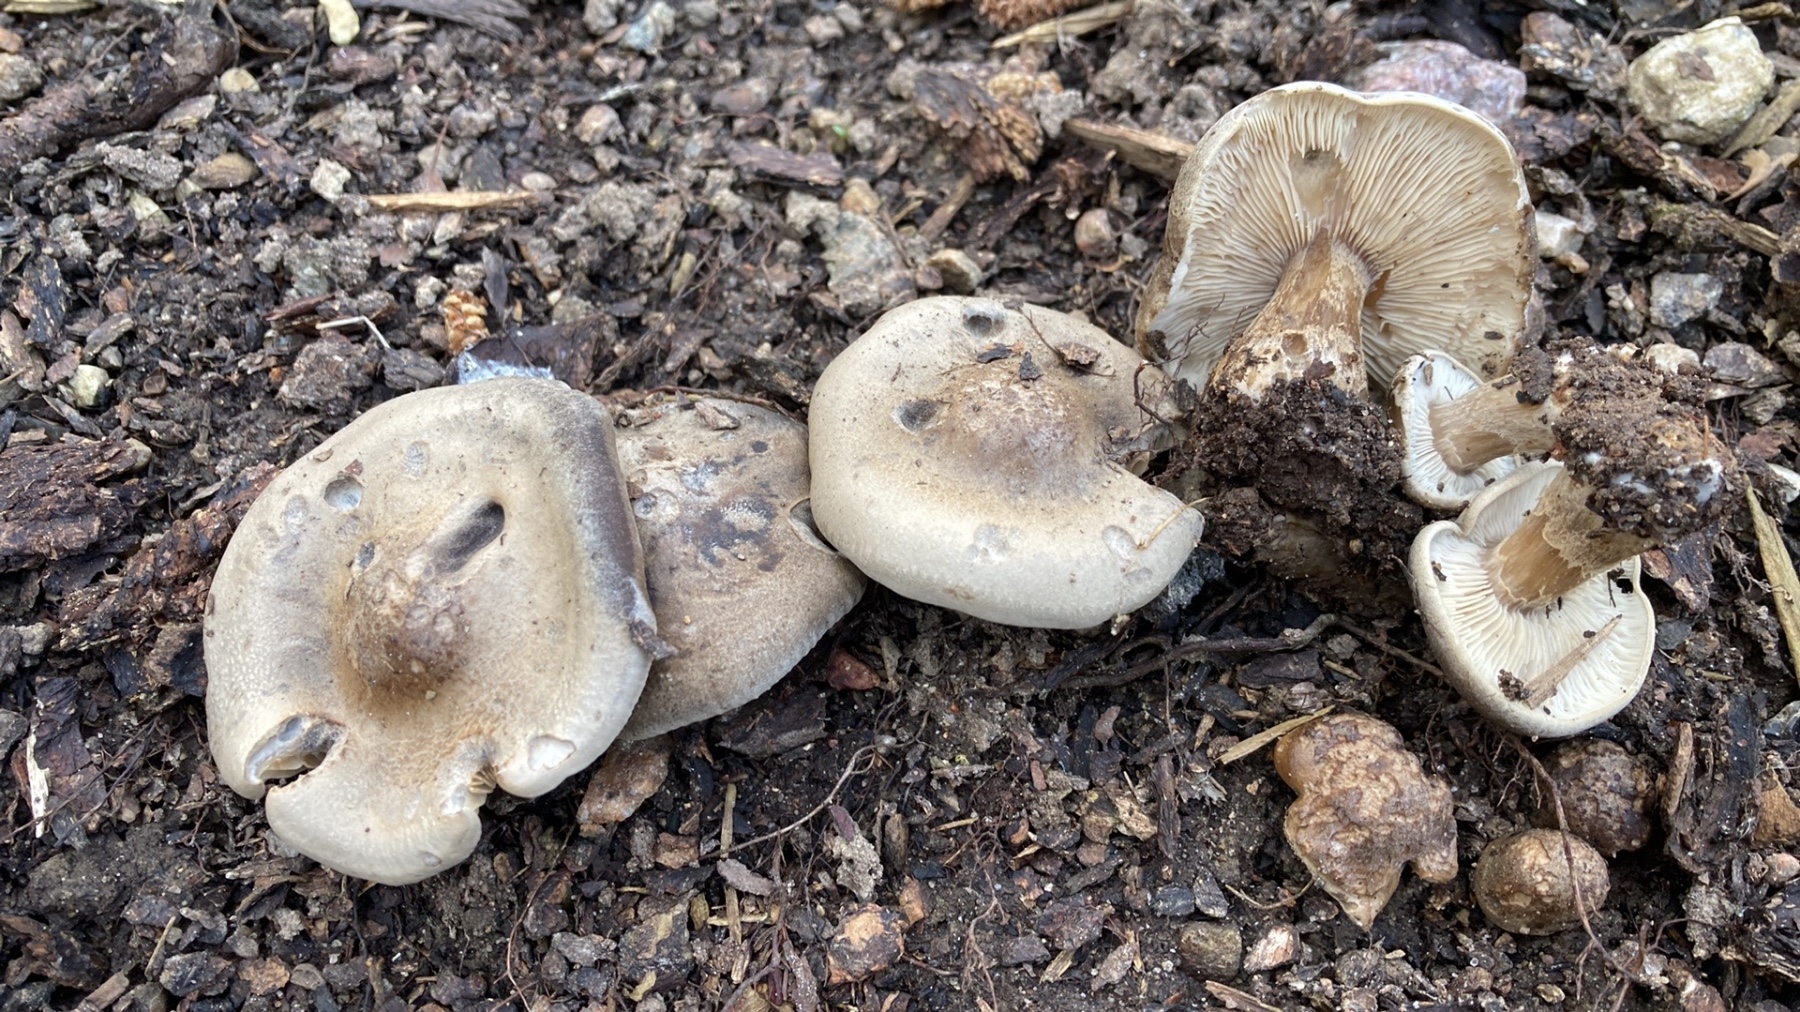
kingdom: Fungi
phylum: Basidiomycota
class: Agaricomycetes
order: Agaricales
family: Tricholomataceae
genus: Melanoleuca
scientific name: Melanoleuca humilis
